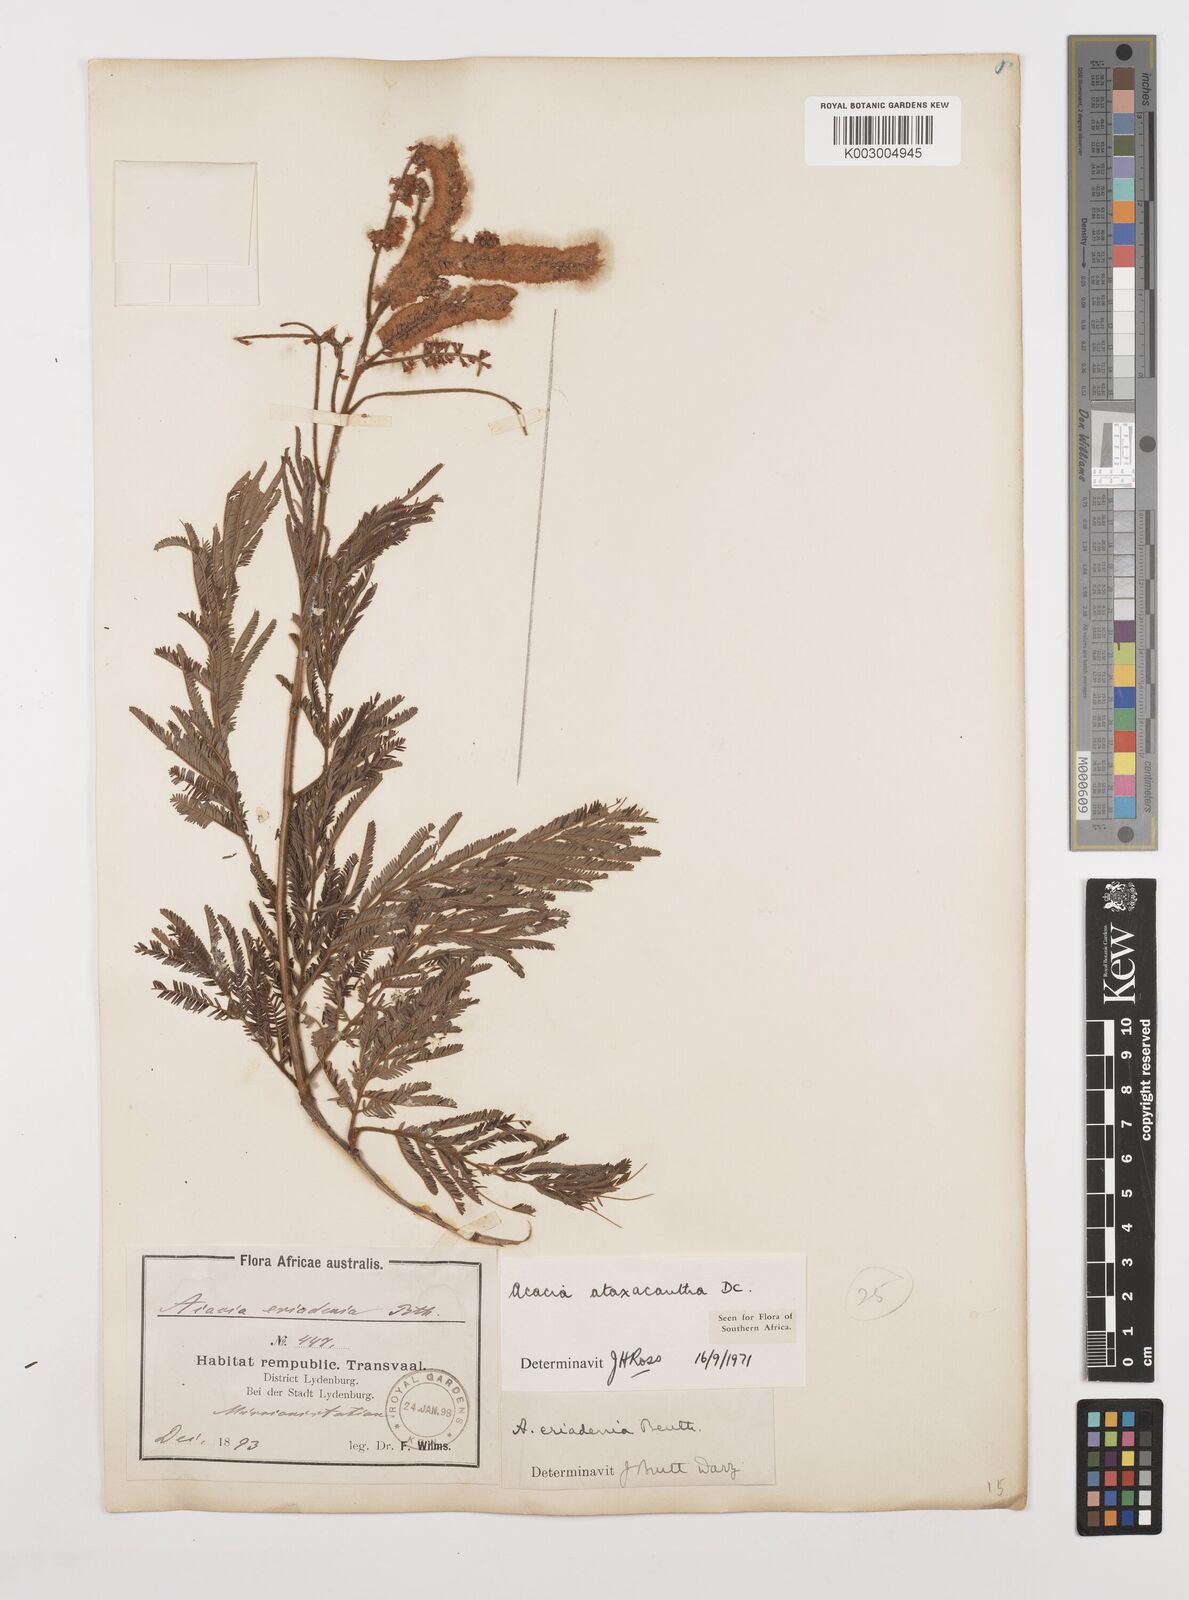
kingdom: Plantae
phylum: Tracheophyta
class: Magnoliopsida
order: Fabales
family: Fabaceae
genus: Senegalia
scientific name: Senegalia ataxacantha
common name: Flame acacia
